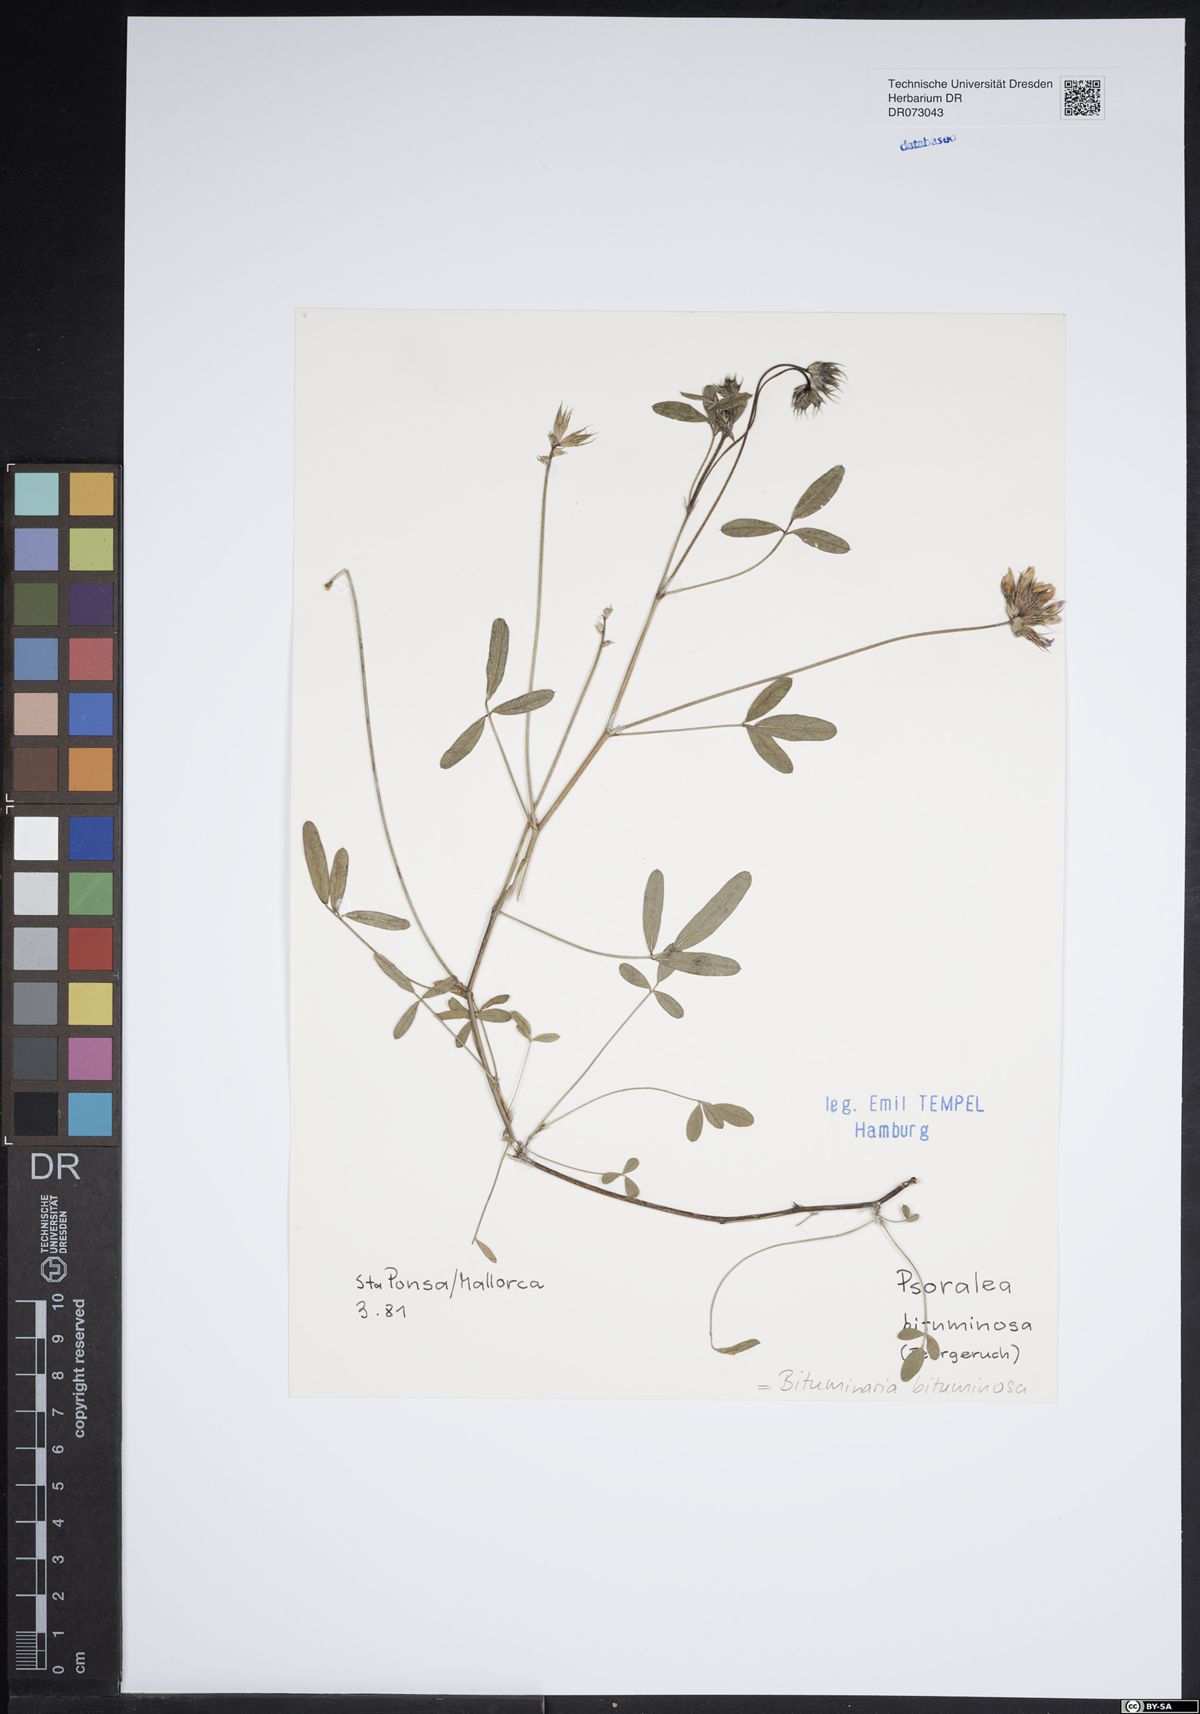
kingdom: Plantae
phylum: Tracheophyta
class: Magnoliopsida
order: Fabales
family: Fabaceae
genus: Bituminaria
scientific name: Bituminaria bituminosa
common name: Arabian pea
